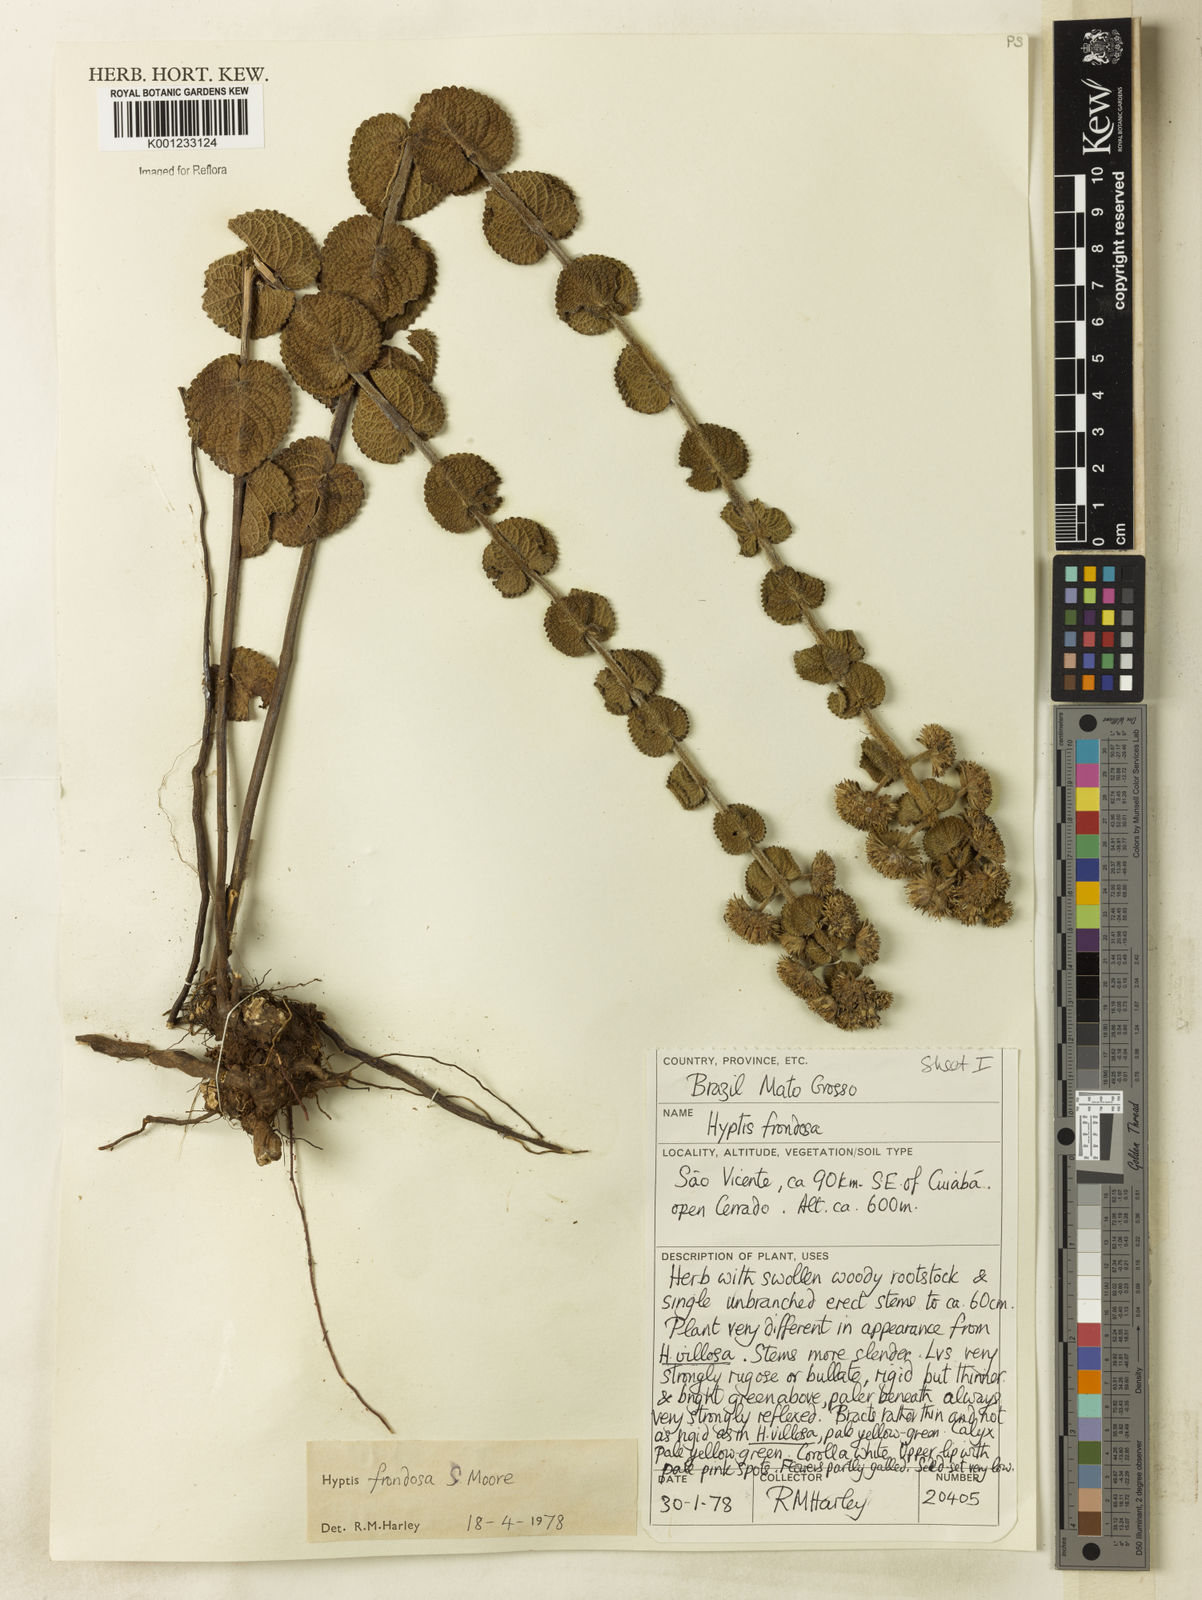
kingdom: Plantae
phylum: Tracheophyta
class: Magnoliopsida
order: Lamiales
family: Lamiaceae
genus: Hyptis
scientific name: Hyptis frondosa
